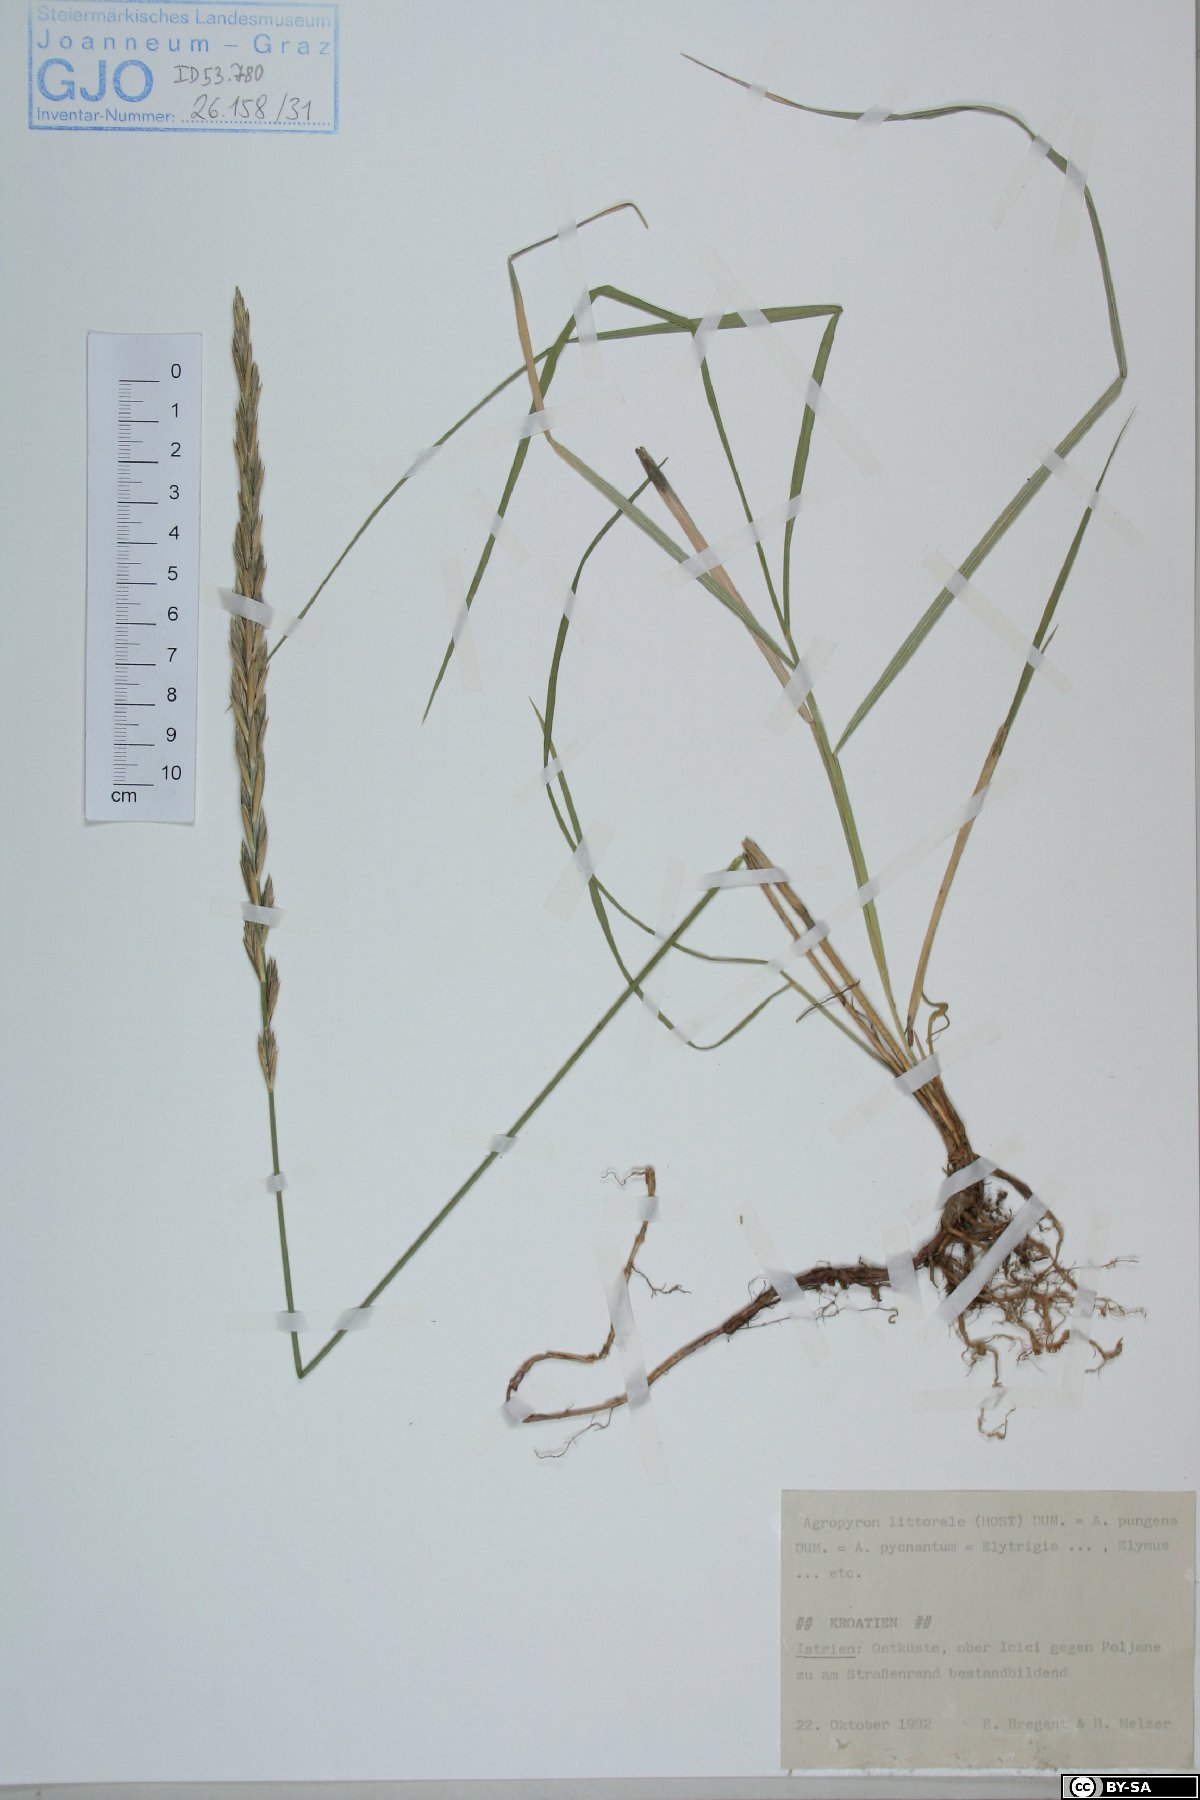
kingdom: Plantae
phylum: Tracheophyta
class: Liliopsida
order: Poales
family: Poaceae
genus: Elymus
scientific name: Elymus athericus
